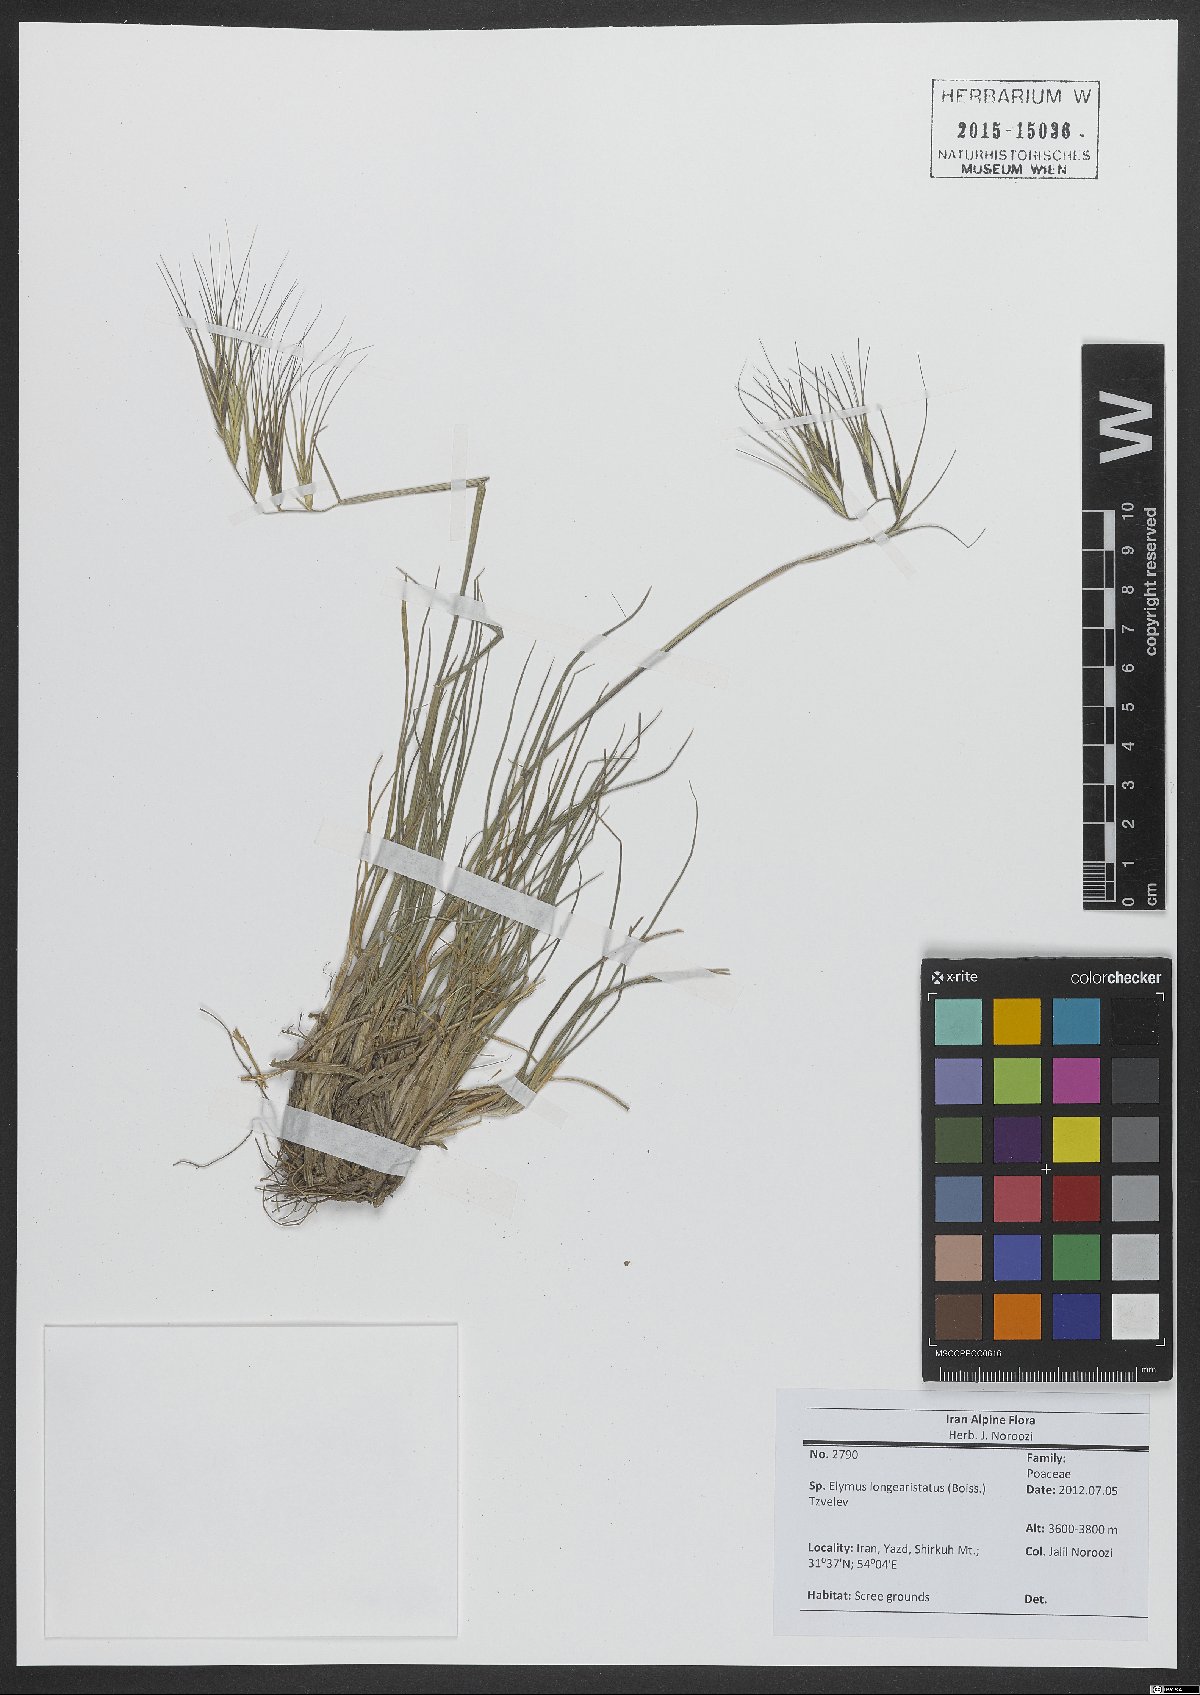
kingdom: Plantae
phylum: Tracheophyta
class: Liliopsida
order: Poales
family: Poaceae
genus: Elymus
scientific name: Elymus longiaristatus
